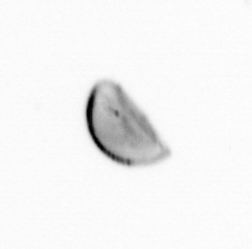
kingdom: Chromista
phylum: Ochrophyta
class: Bacillariophyceae
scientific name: Bacillariophyceae
